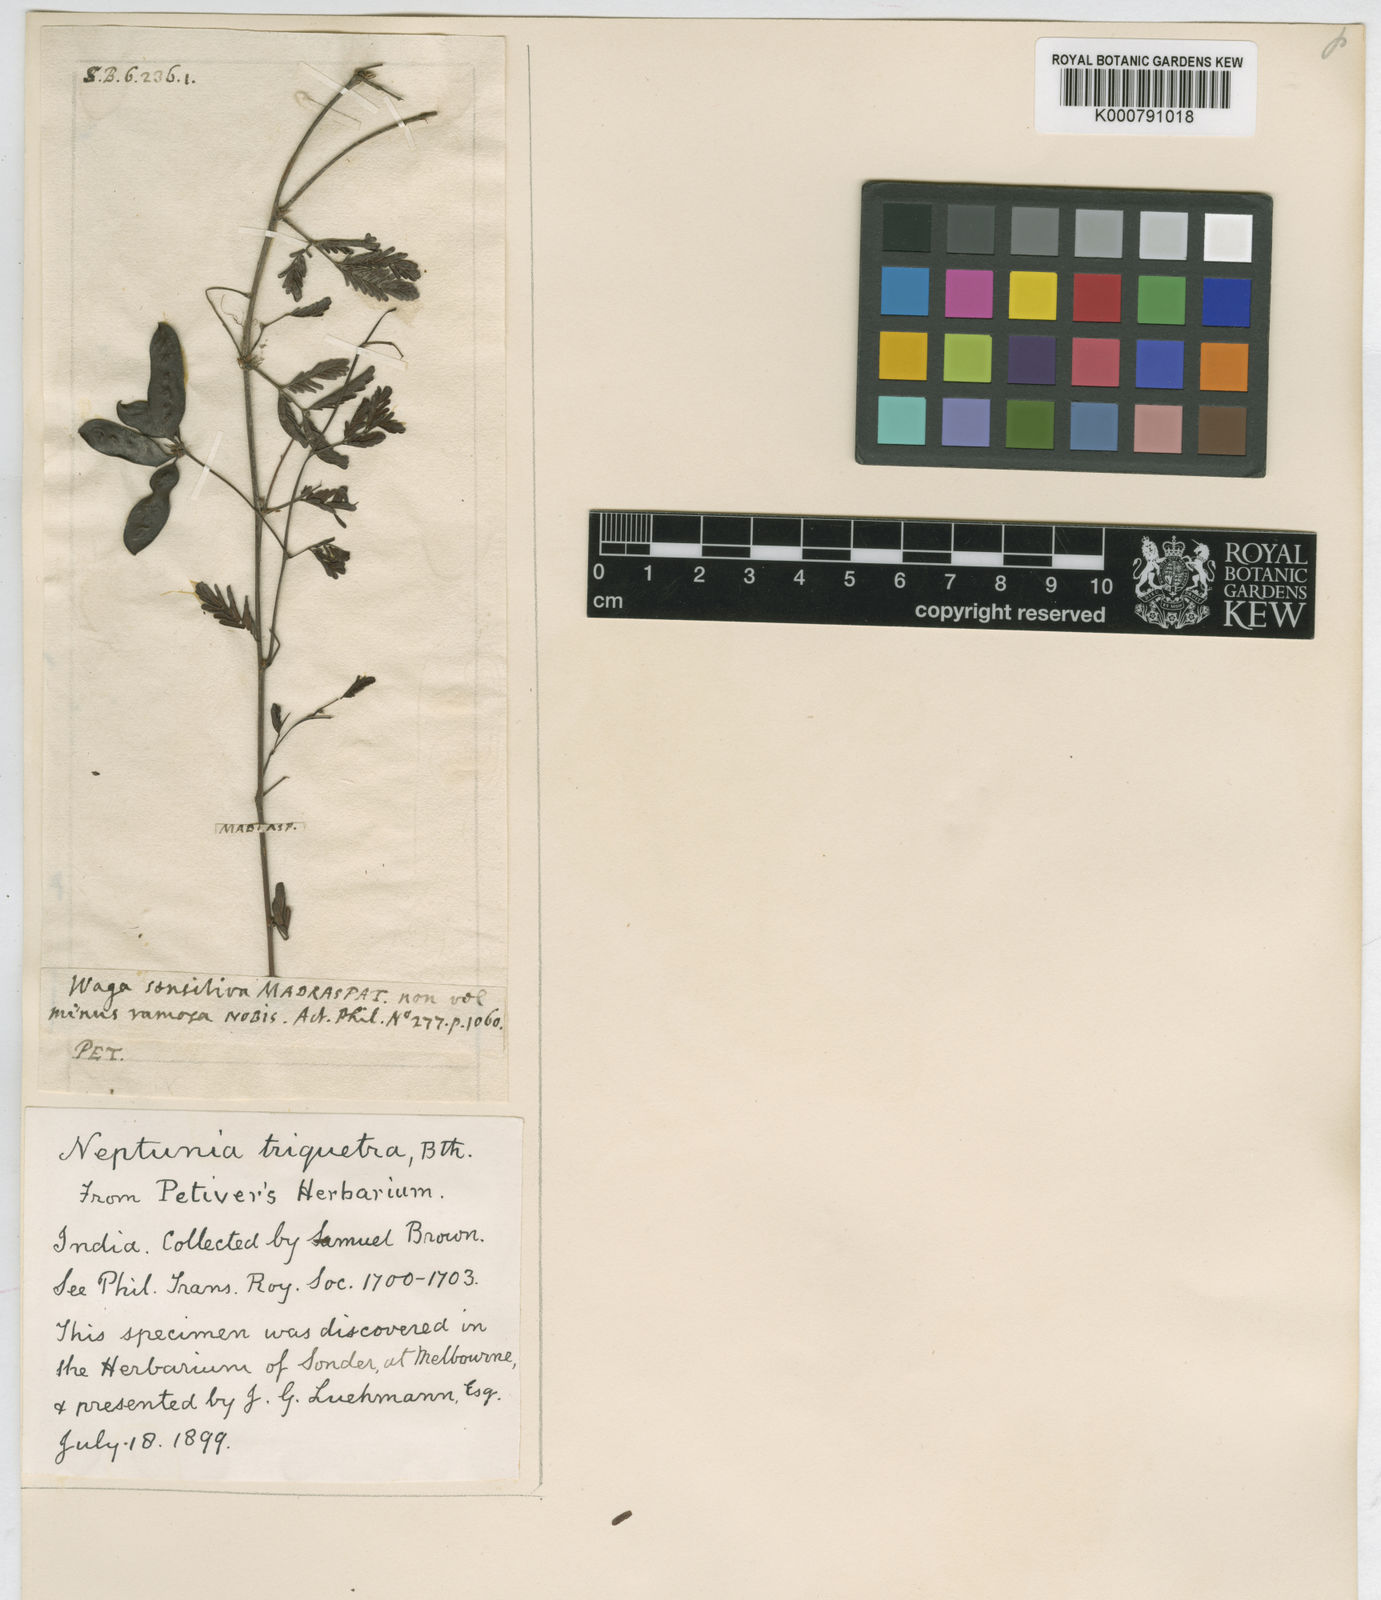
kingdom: Plantae
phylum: Tracheophyta
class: Magnoliopsida
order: Fabales
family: Fabaceae
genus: Neptunia
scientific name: Neptunia triquetra
